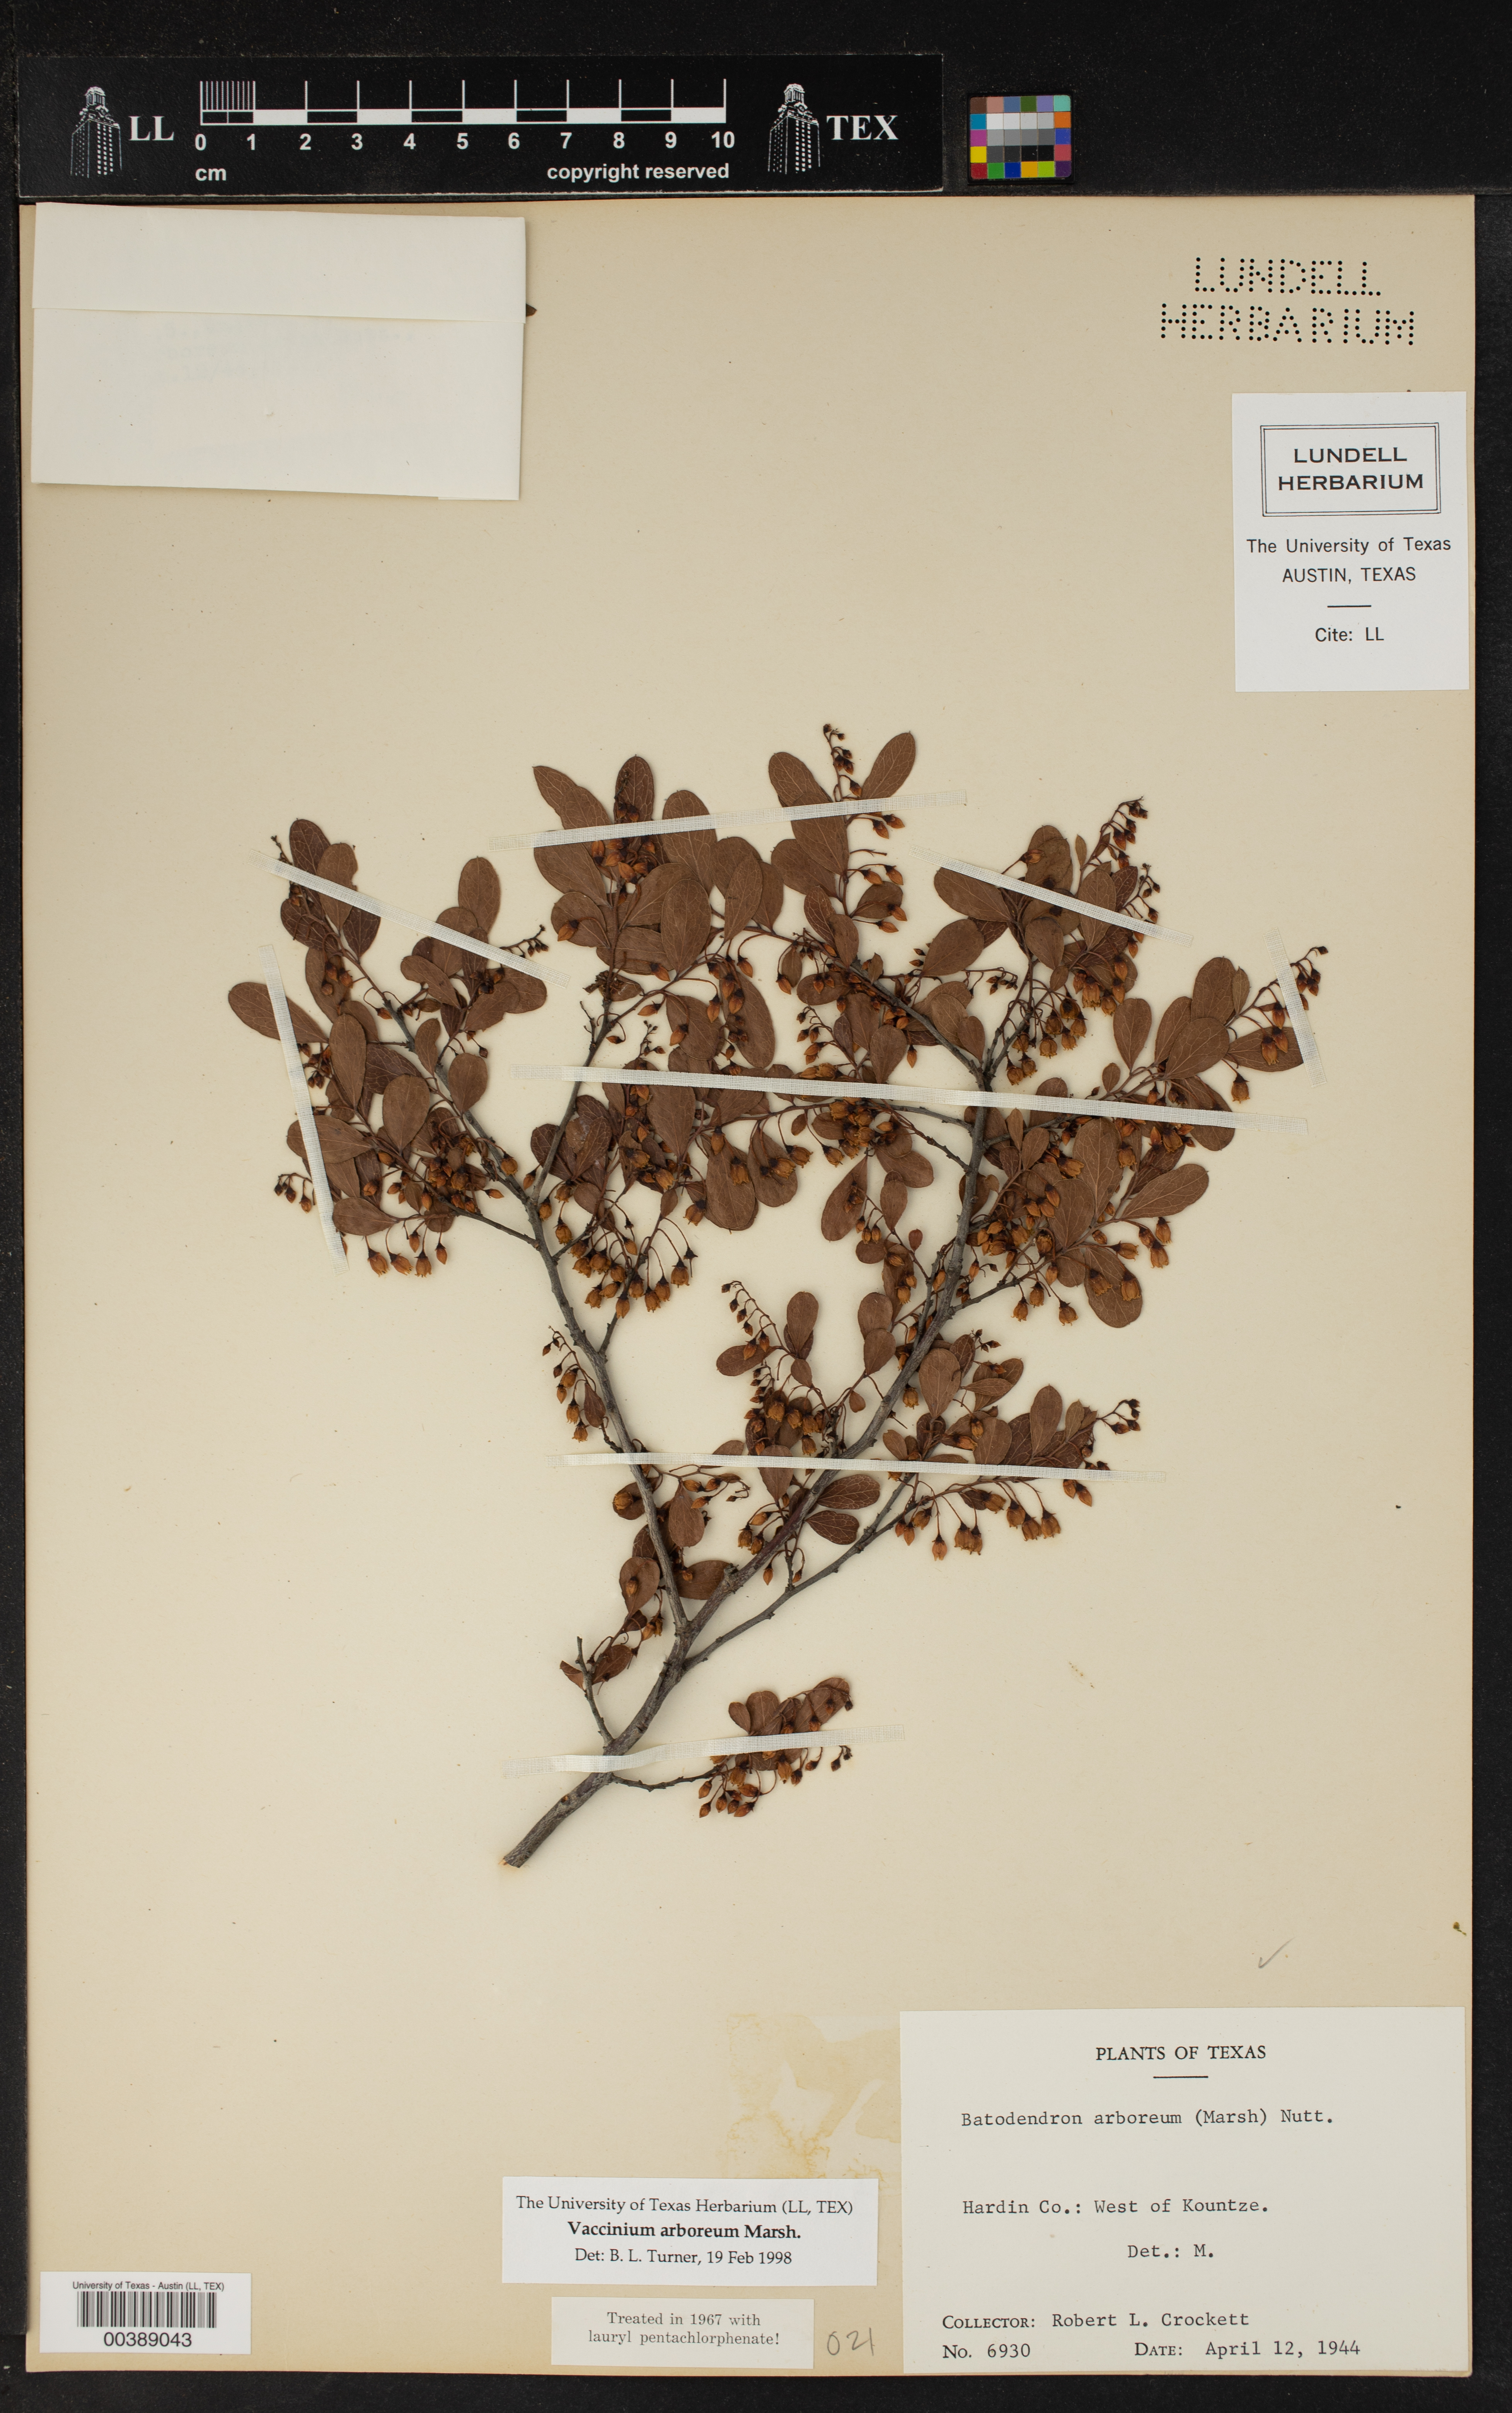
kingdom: Plantae
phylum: Tracheophyta
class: Magnoliopsida
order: Ericales
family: Ericaceae
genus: Vaccinium
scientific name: Vaccinium arboreum
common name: Farkleberry
